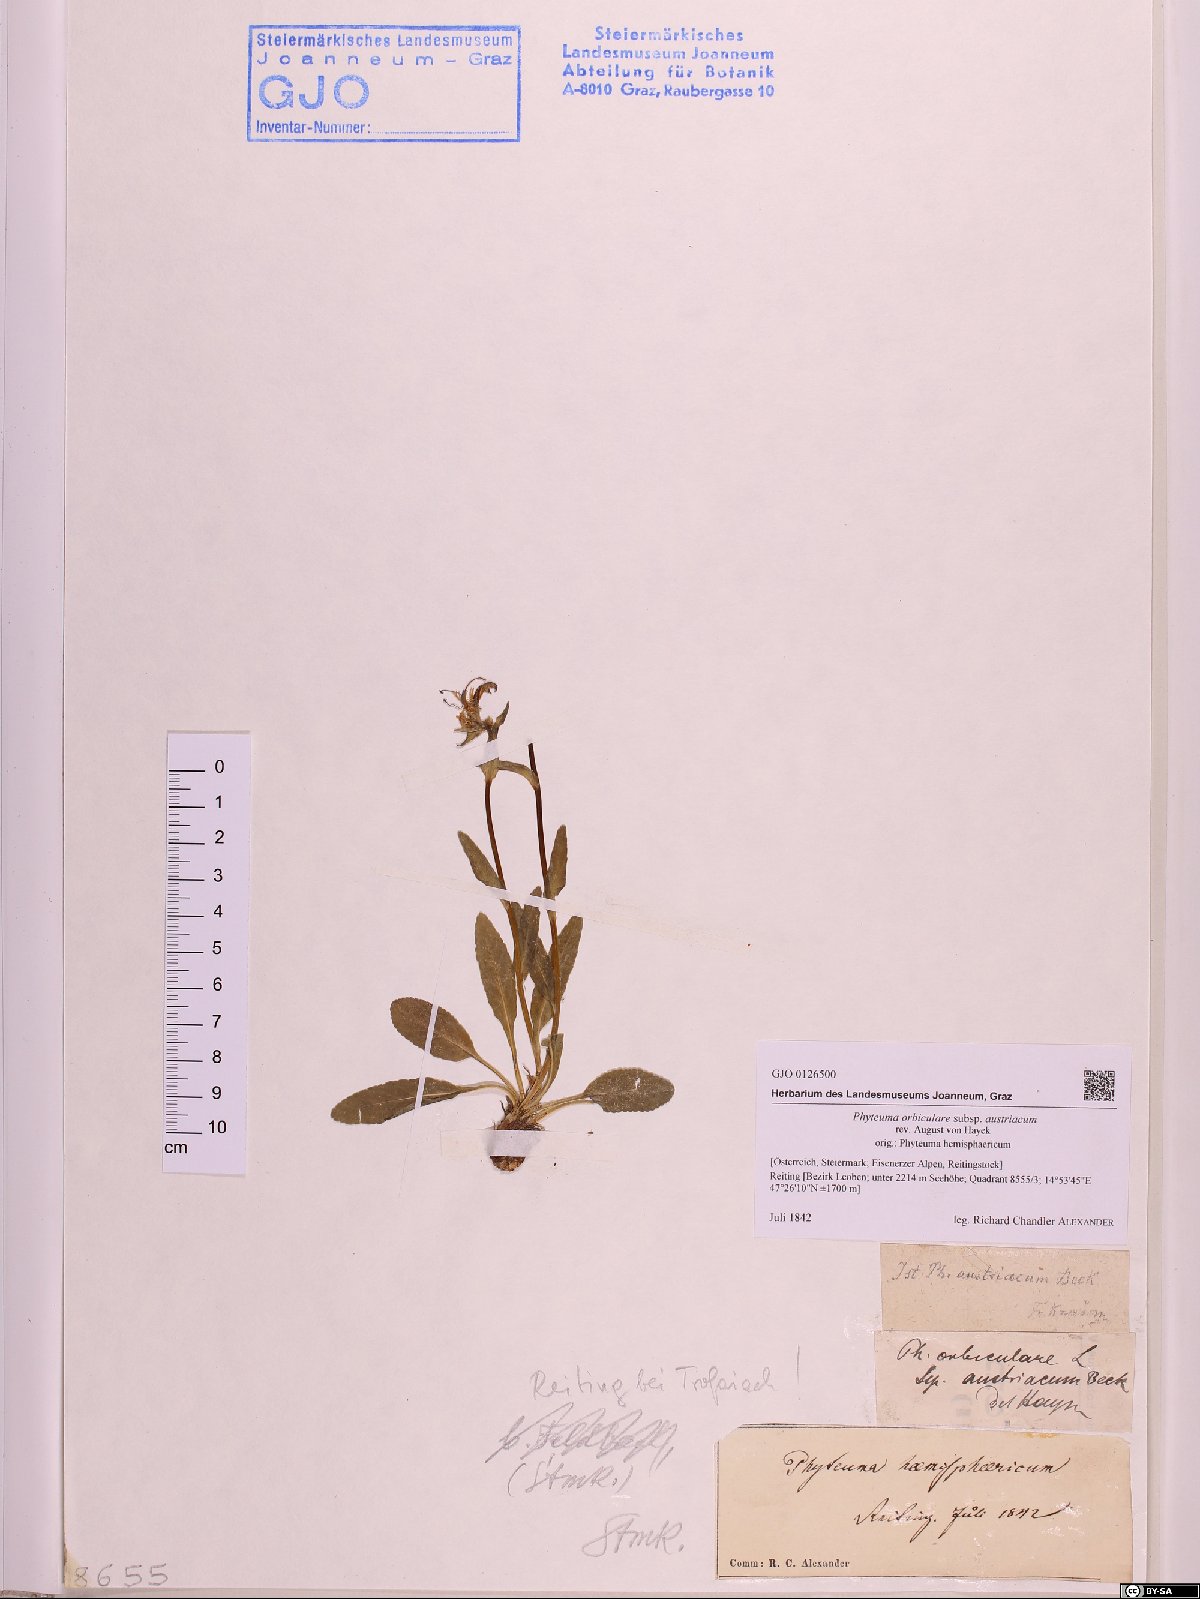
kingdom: Plantae
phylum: Tracheophyta
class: Magnoliopsida
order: Asterales
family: Campanulaceae
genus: Phyteuma
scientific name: Phyteuma orbiculare
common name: Round-headed rampion
